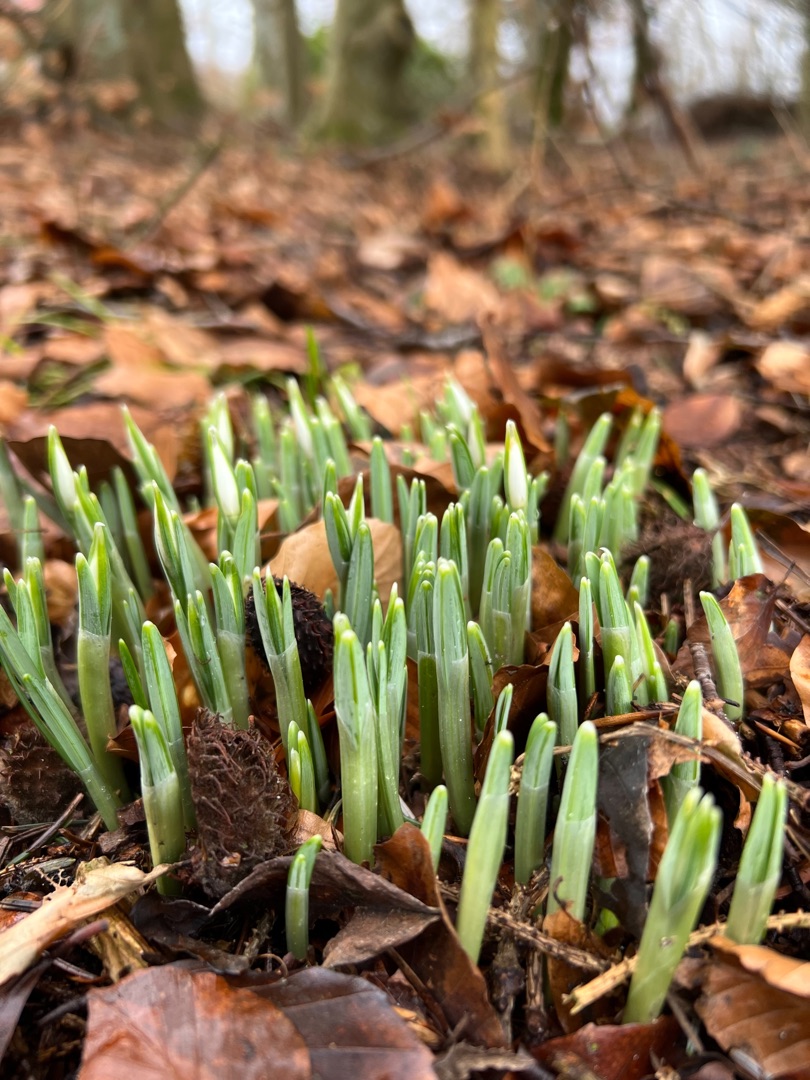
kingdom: Plantae
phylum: Tracheophyta
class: Liliopsida
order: Asparagales
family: Amaryllidaceae
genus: Galanthus
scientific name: Galanthus nivalis
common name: Vintergæk
